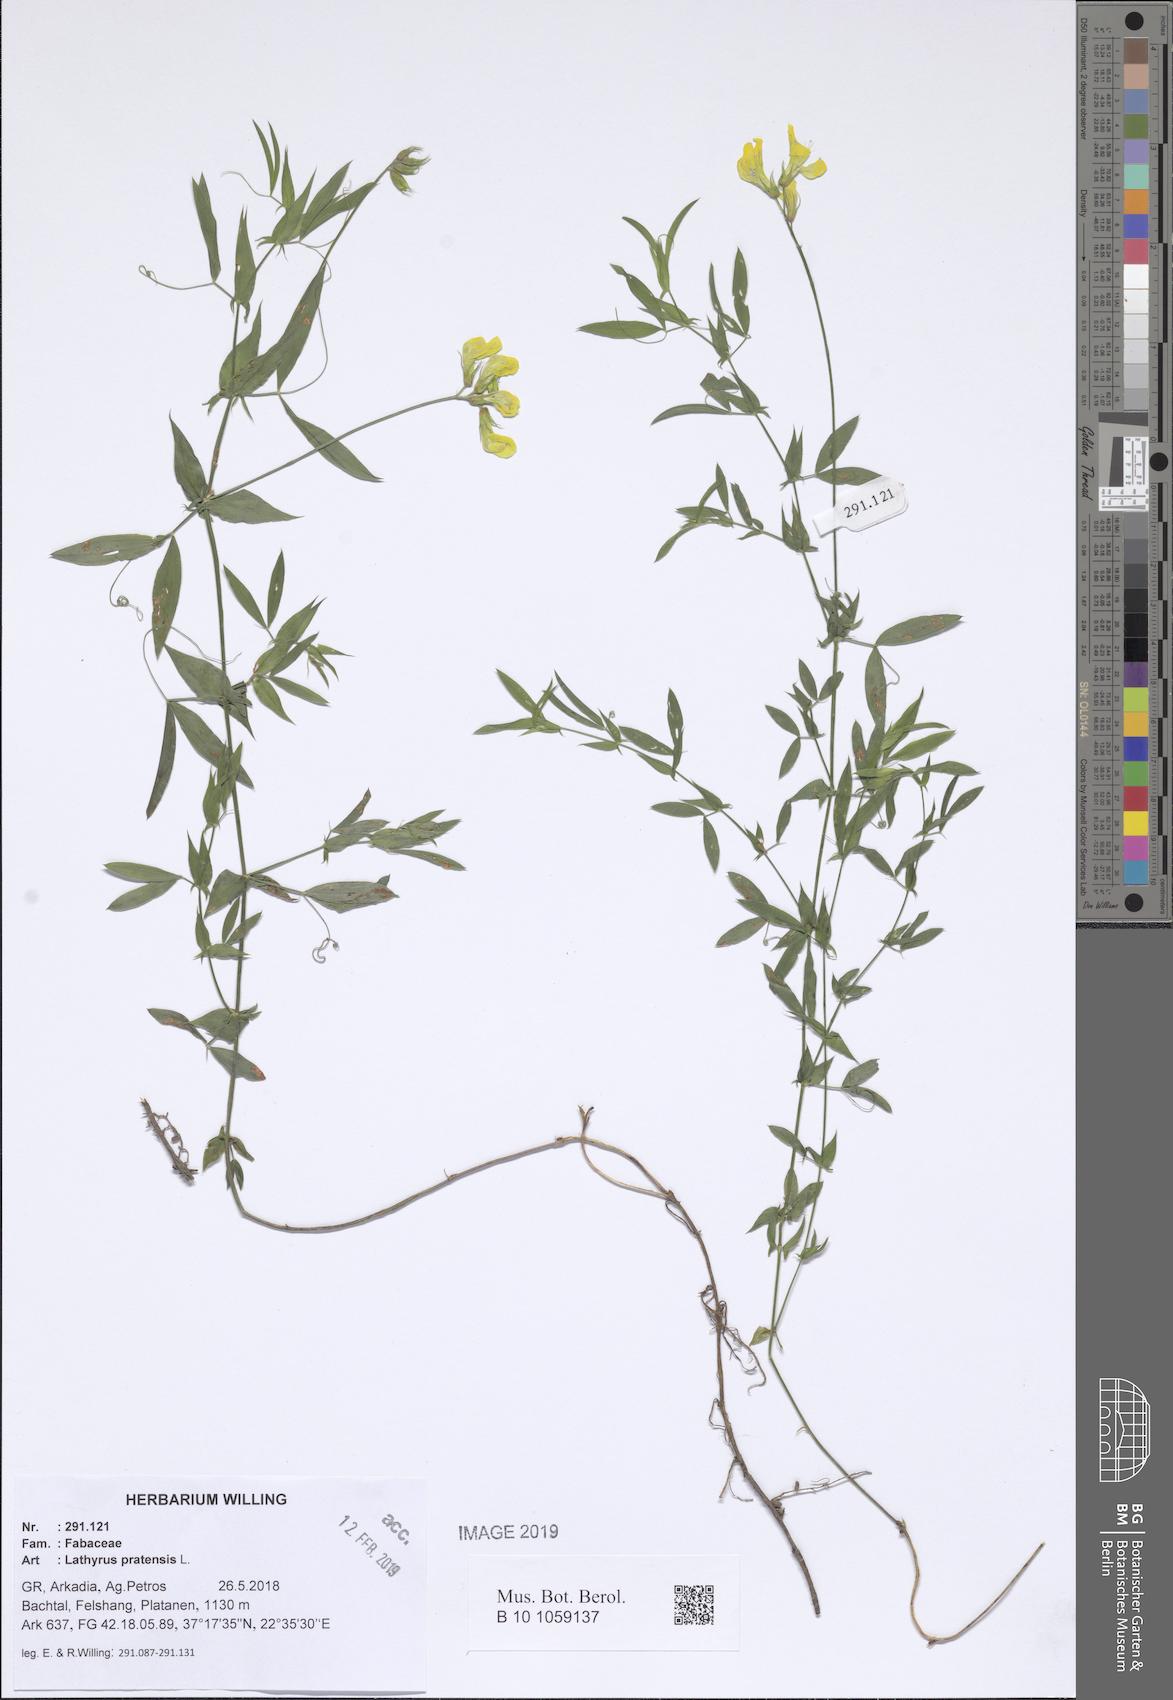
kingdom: Plantae
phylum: Tracheophyta
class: Magnoliopsida
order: Fabales
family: Fabaceae
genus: Lathyrus
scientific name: Lathyrus pratensis
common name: Meadow vetchling
